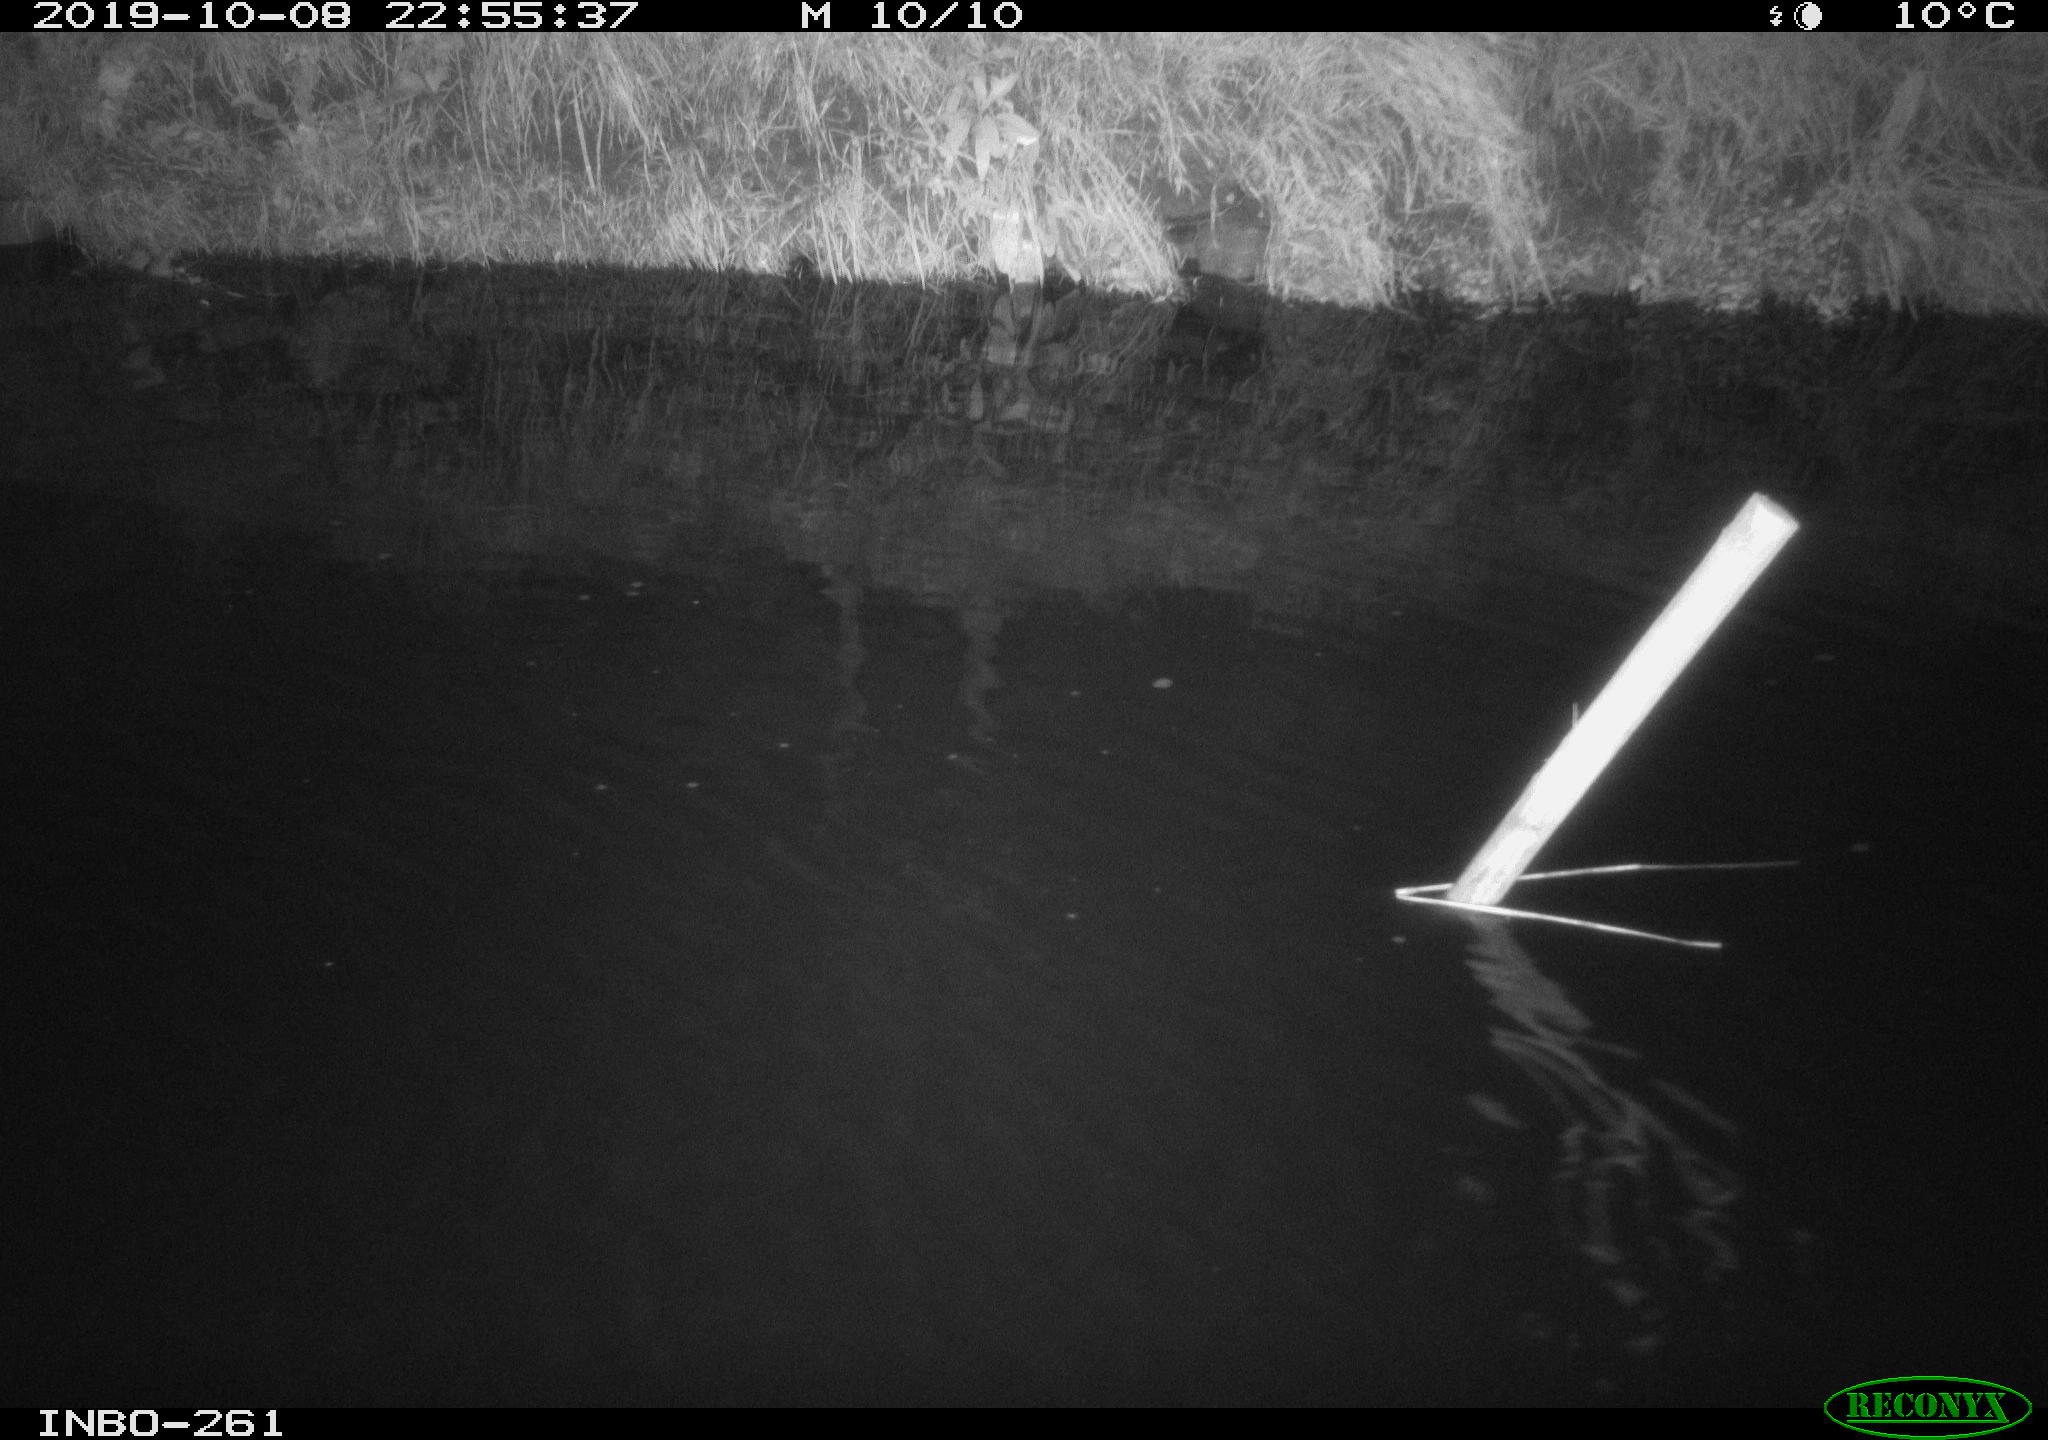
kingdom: Animalia
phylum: Chordata
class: Aves
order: Anseriformes
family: Anatidae
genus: Anas
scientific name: Anas platyrhynchos
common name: Mallard
